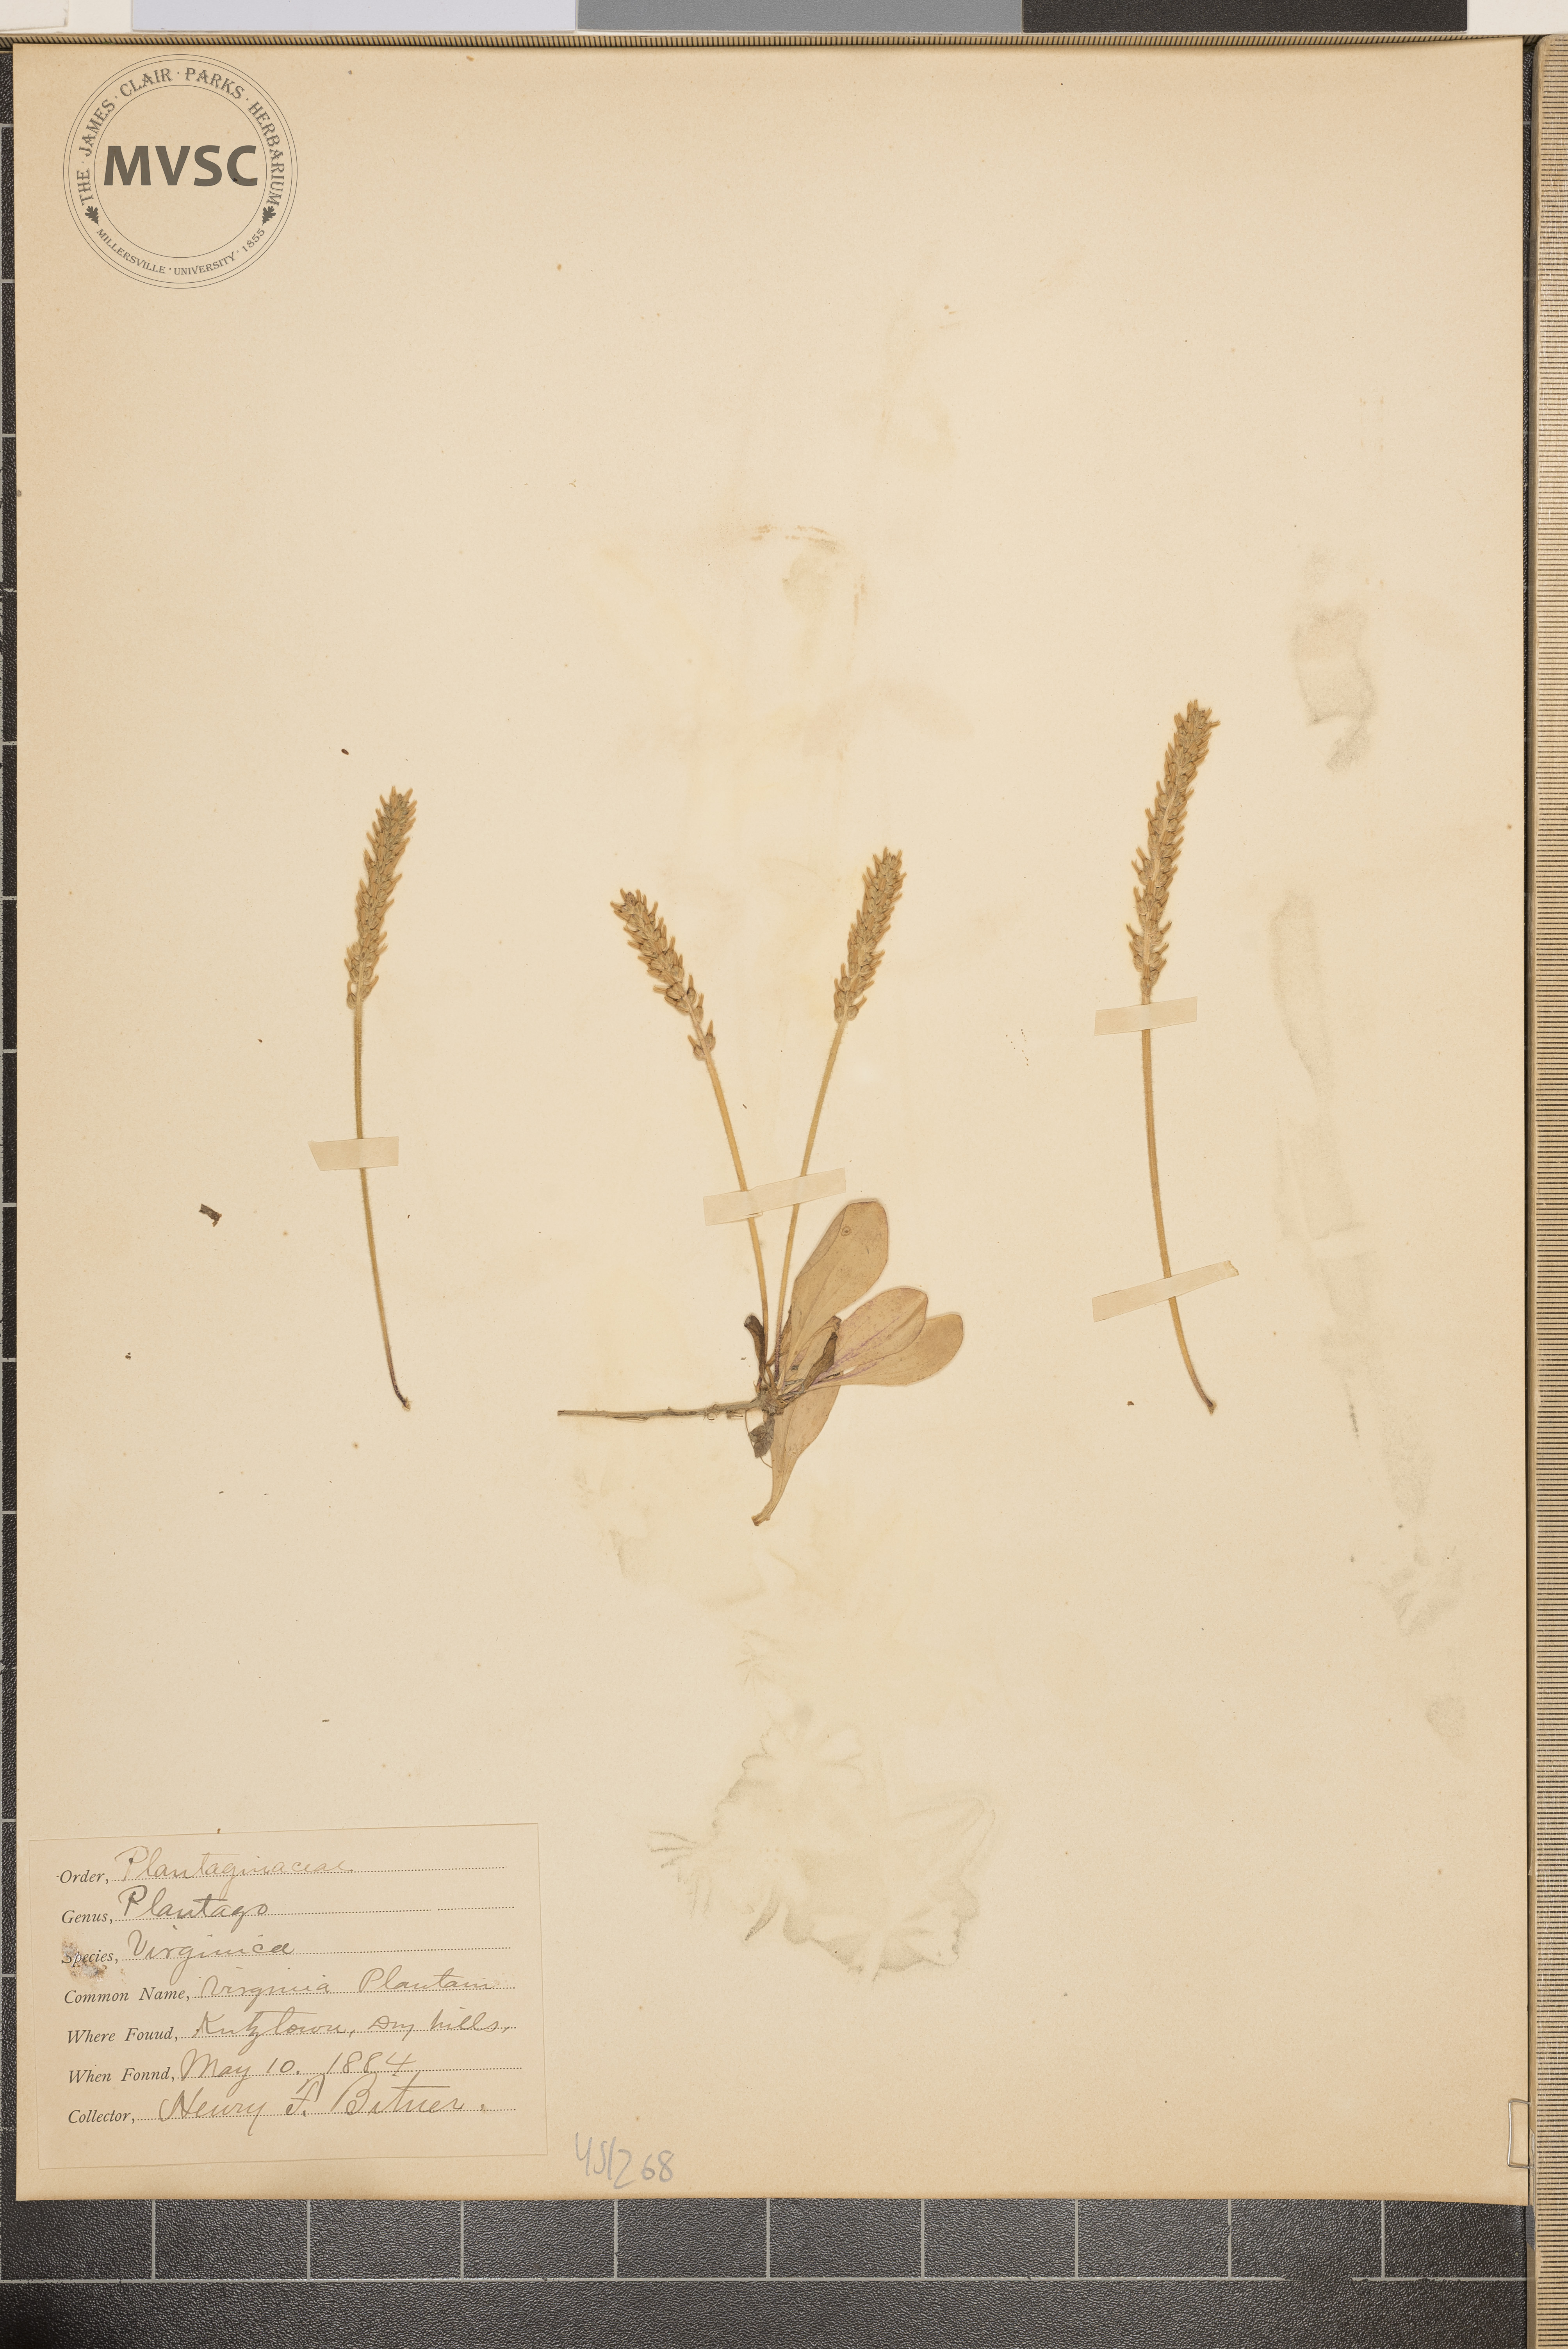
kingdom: Plantae
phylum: Tracheophyta
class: Magnoliopsida
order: Lamiales
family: Plantaginaceae
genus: Plantago
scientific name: Plantago virginica
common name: Virginia plantain
